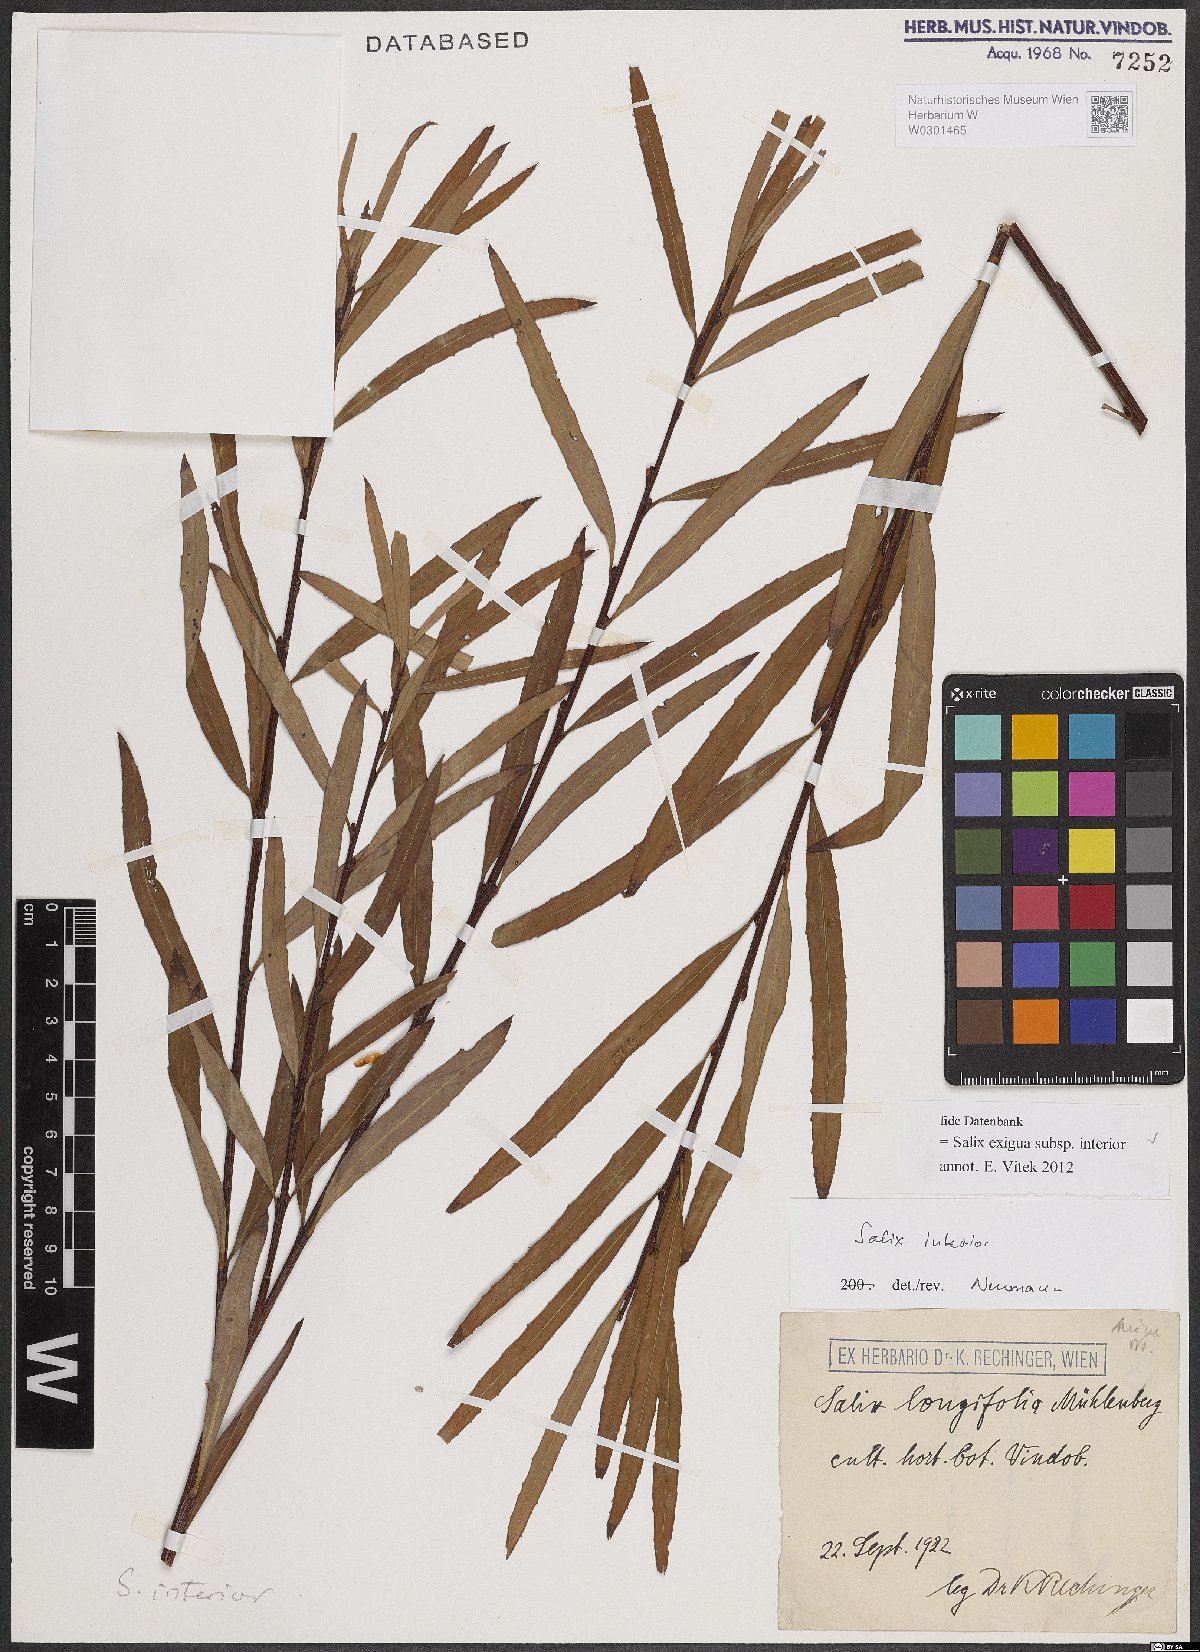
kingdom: Plantae
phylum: Tracheophyta
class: Magnoliopsida
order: Malpighiales
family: Salicaceae
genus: Salix
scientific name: Salix interior
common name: Sandbar willow
